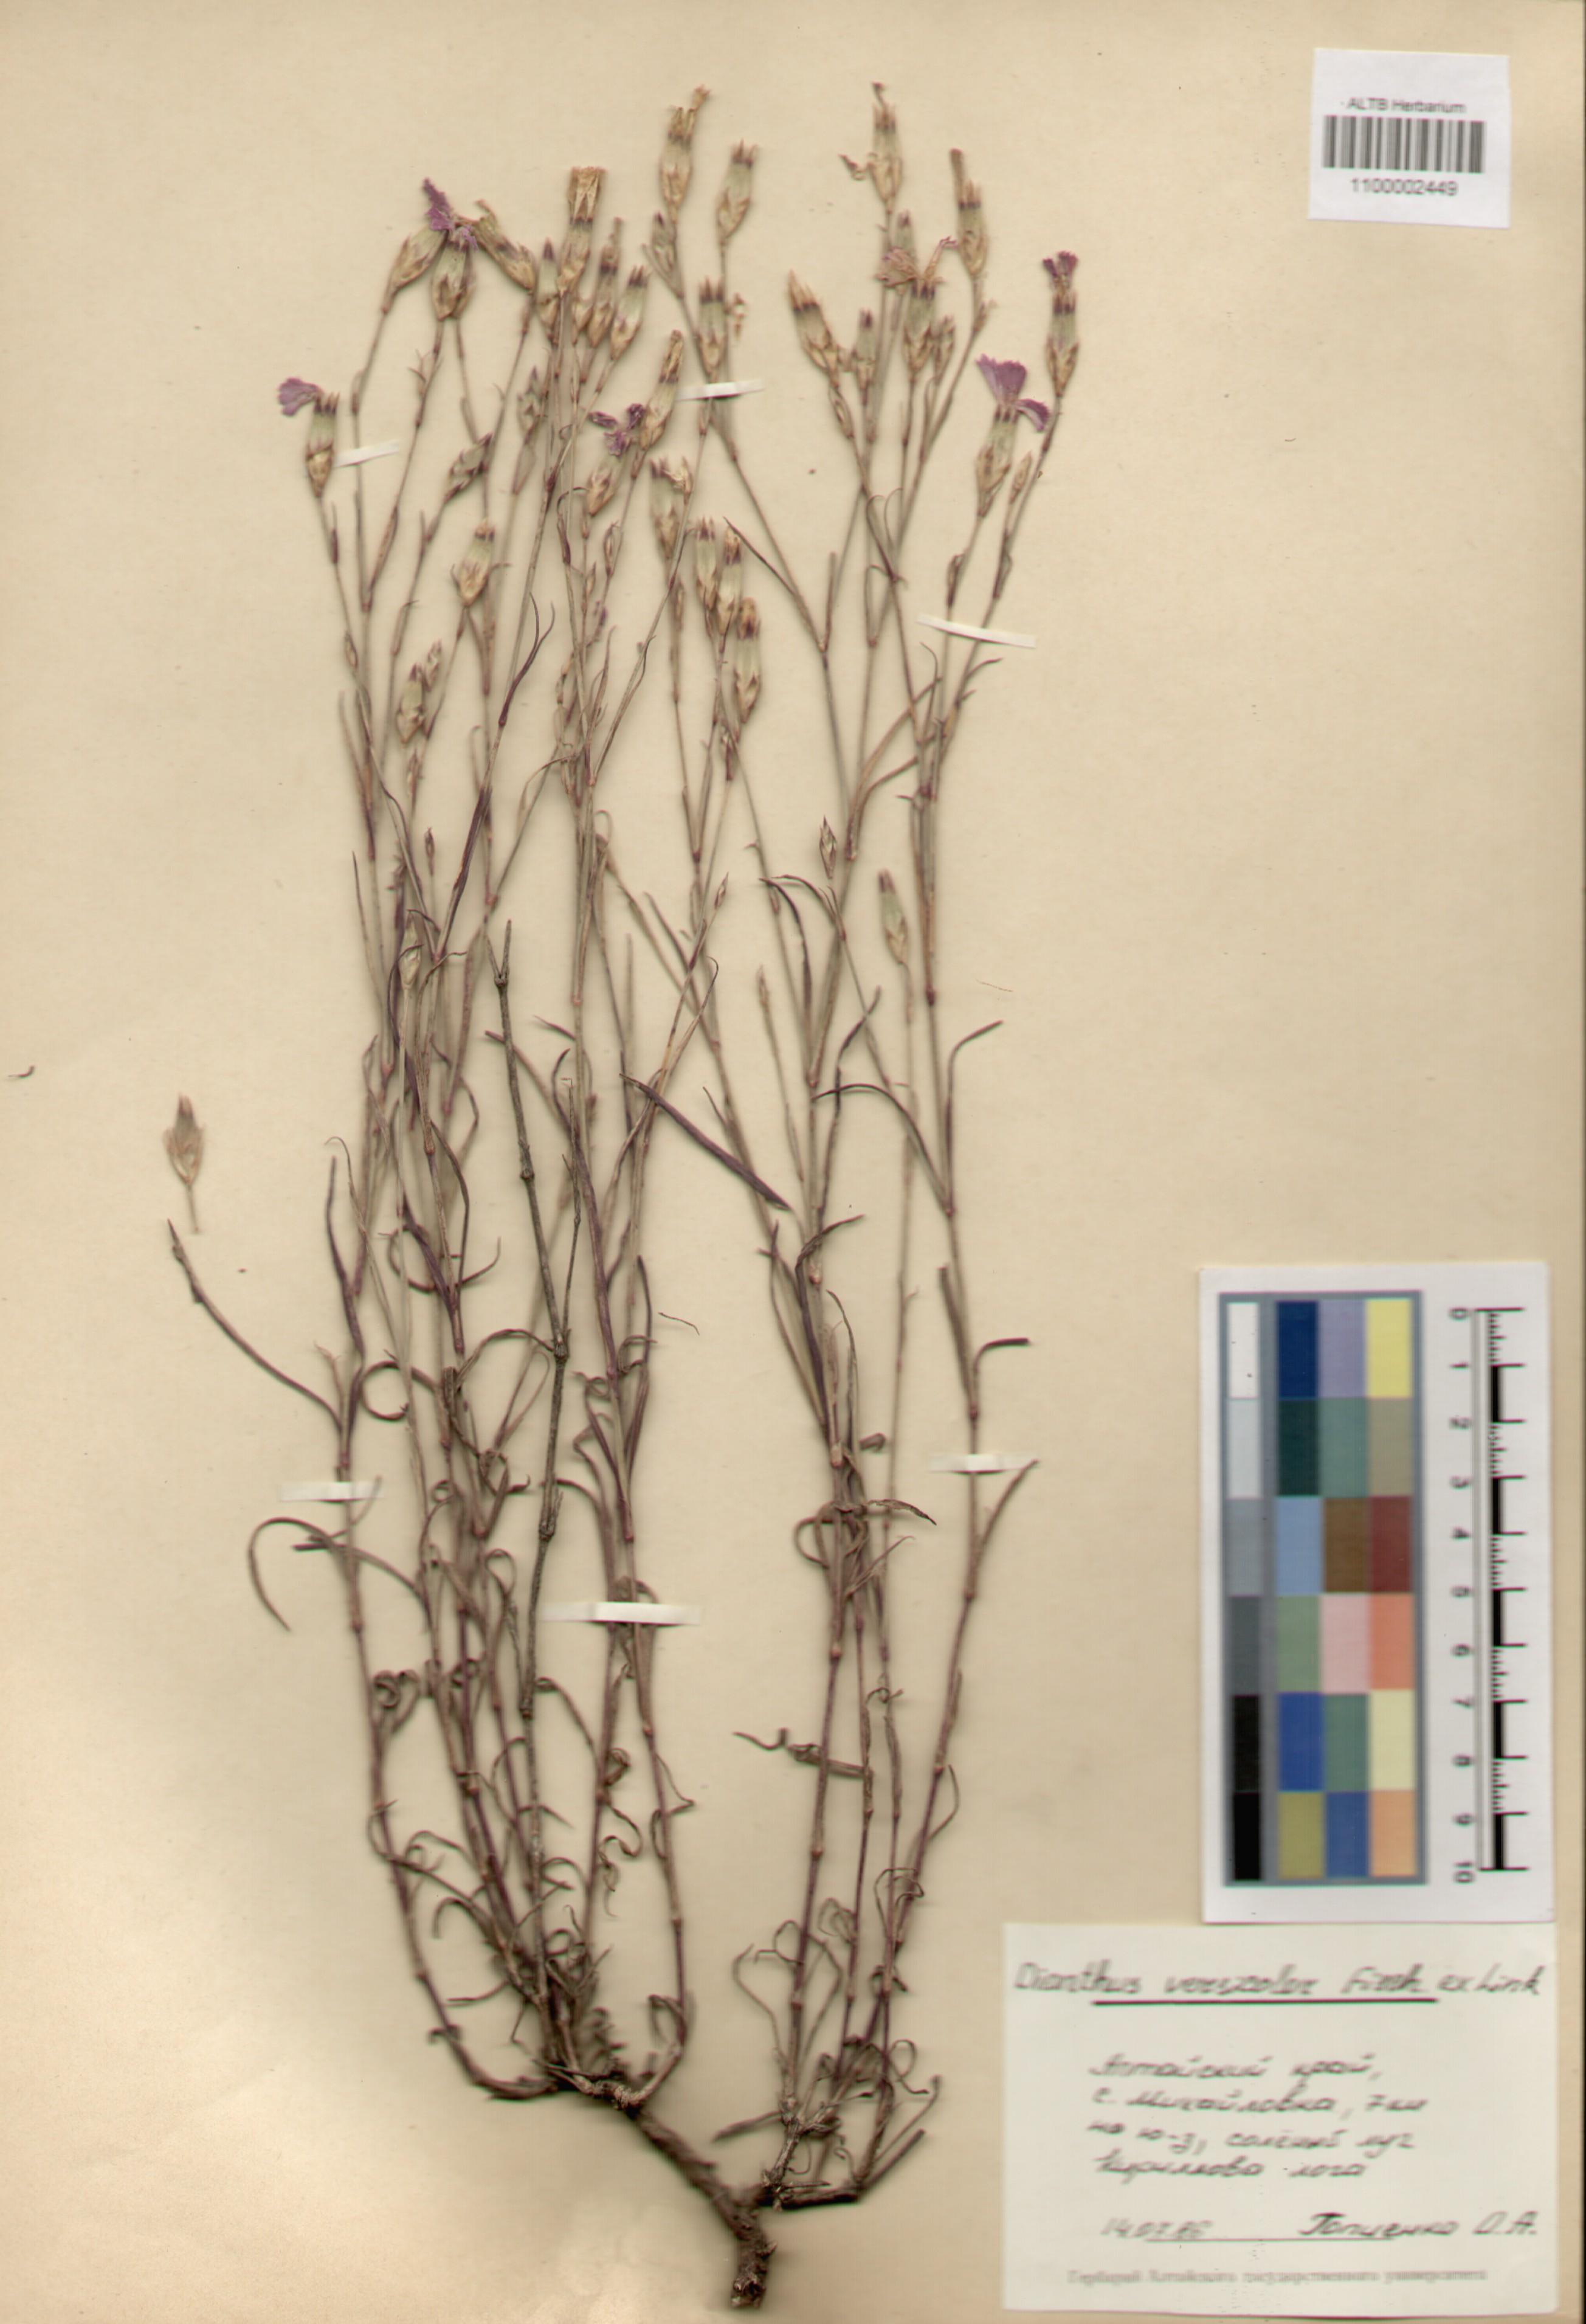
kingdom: Plantae
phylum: Tracheophyta
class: Magnoliopsida
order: Caryophyllales
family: Caryophyllaceae
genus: Dianthus
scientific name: Dianthus chinensis
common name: Rainbow pink
